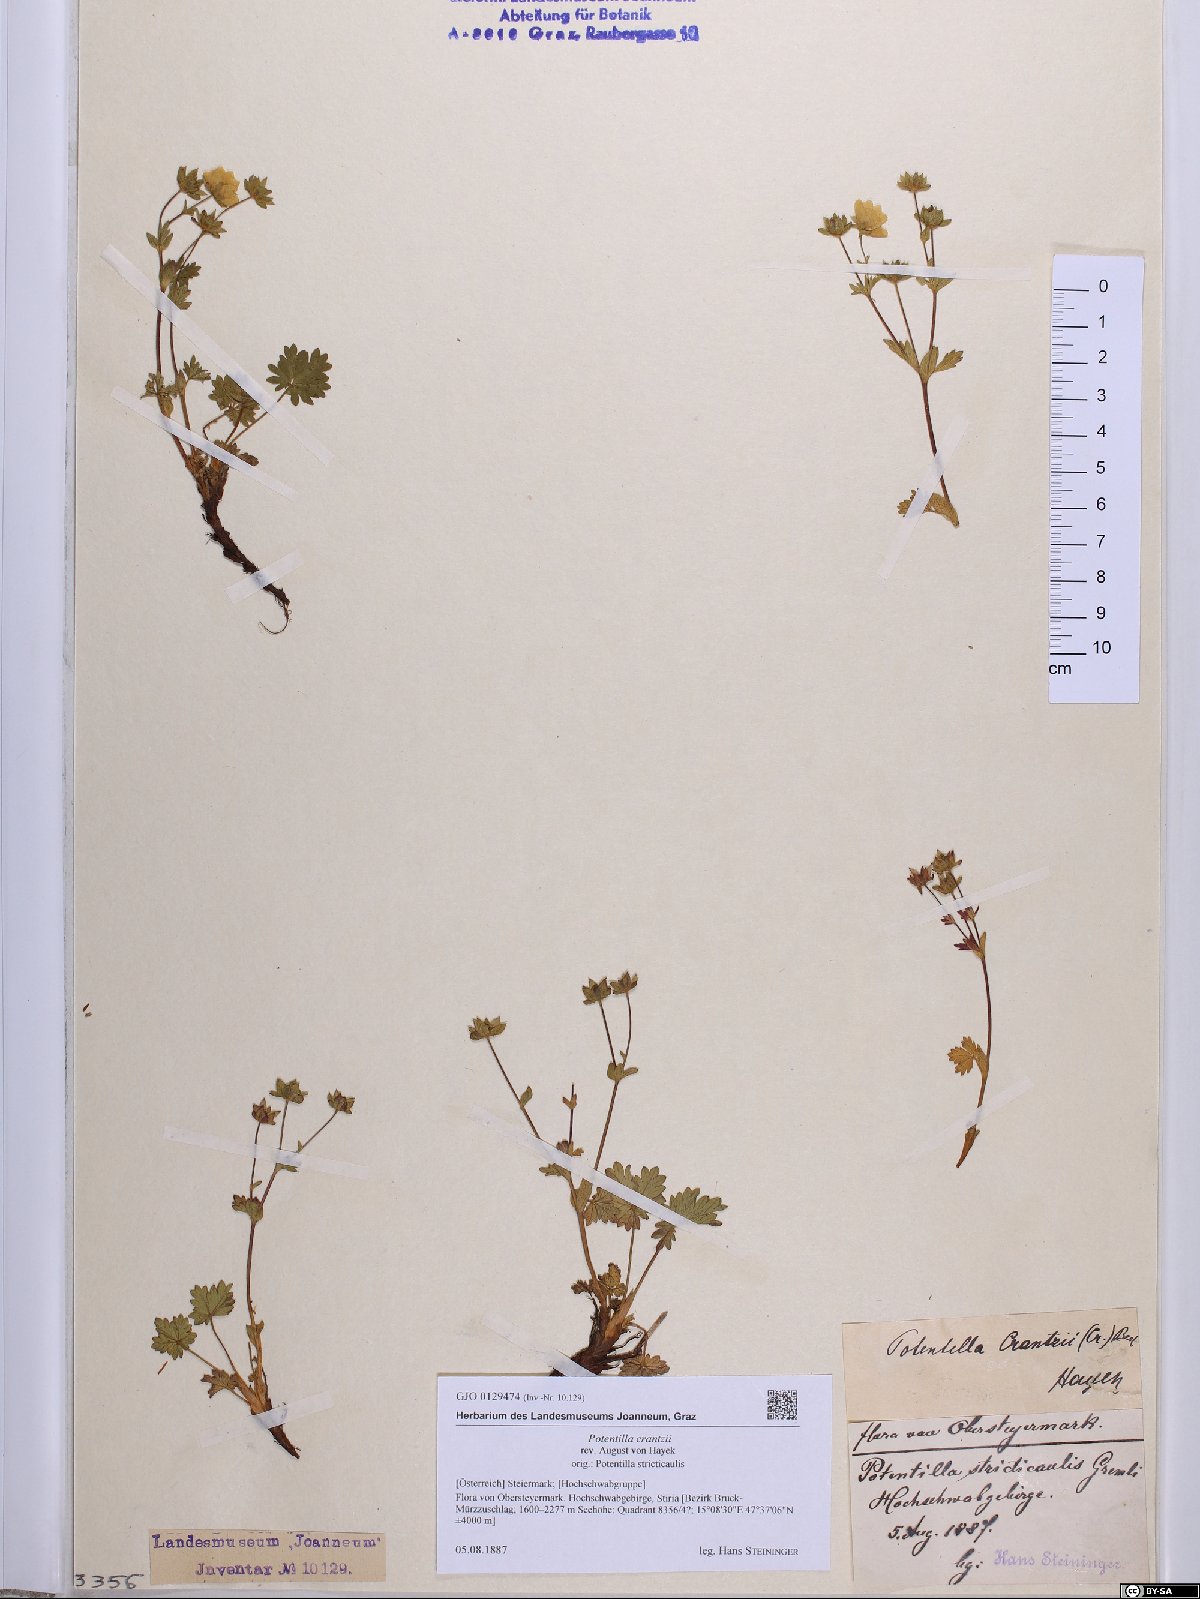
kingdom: Plantae
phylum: Tracheophyta
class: Magnoliopsida
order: Rosales
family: Rosaceae
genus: Potentilla
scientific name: Potentilla crantzii
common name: Alpine cinquefoil
